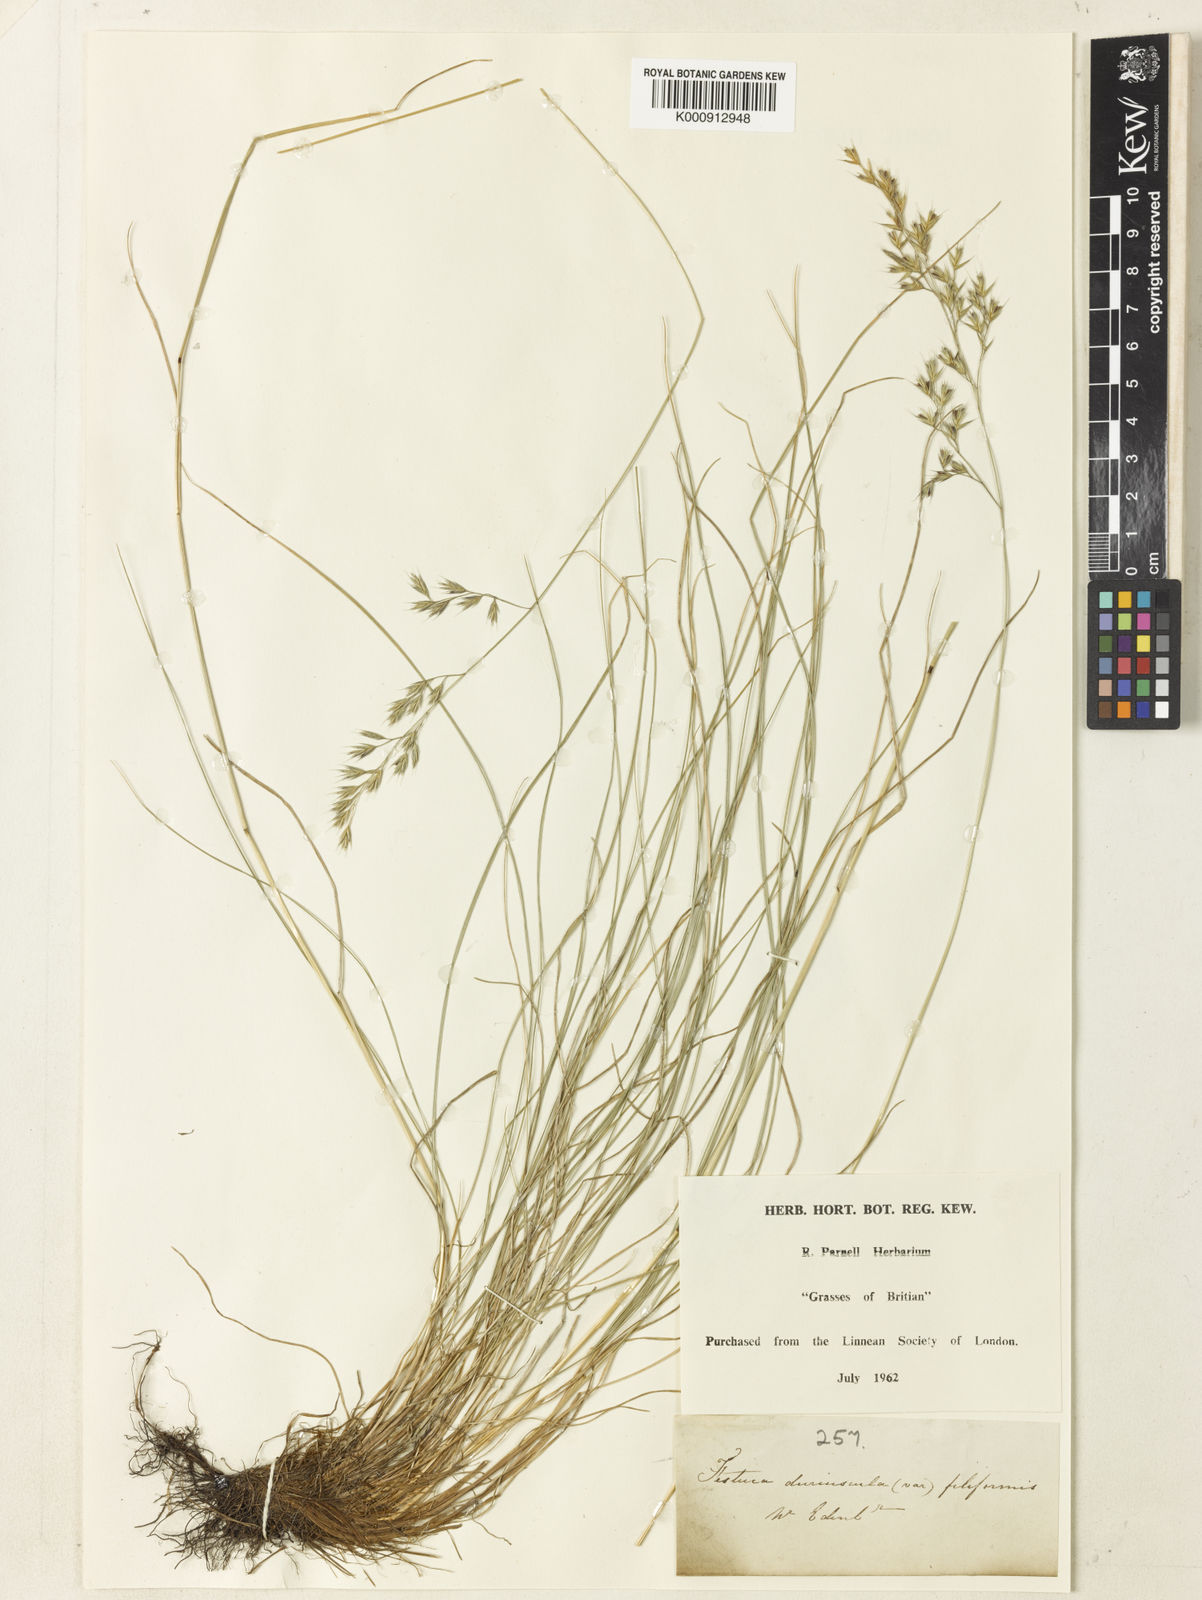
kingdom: Plantae
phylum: Tracheophyta
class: Liliopsida
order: Poales
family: Poaceae
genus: Festuca
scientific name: Festuca
